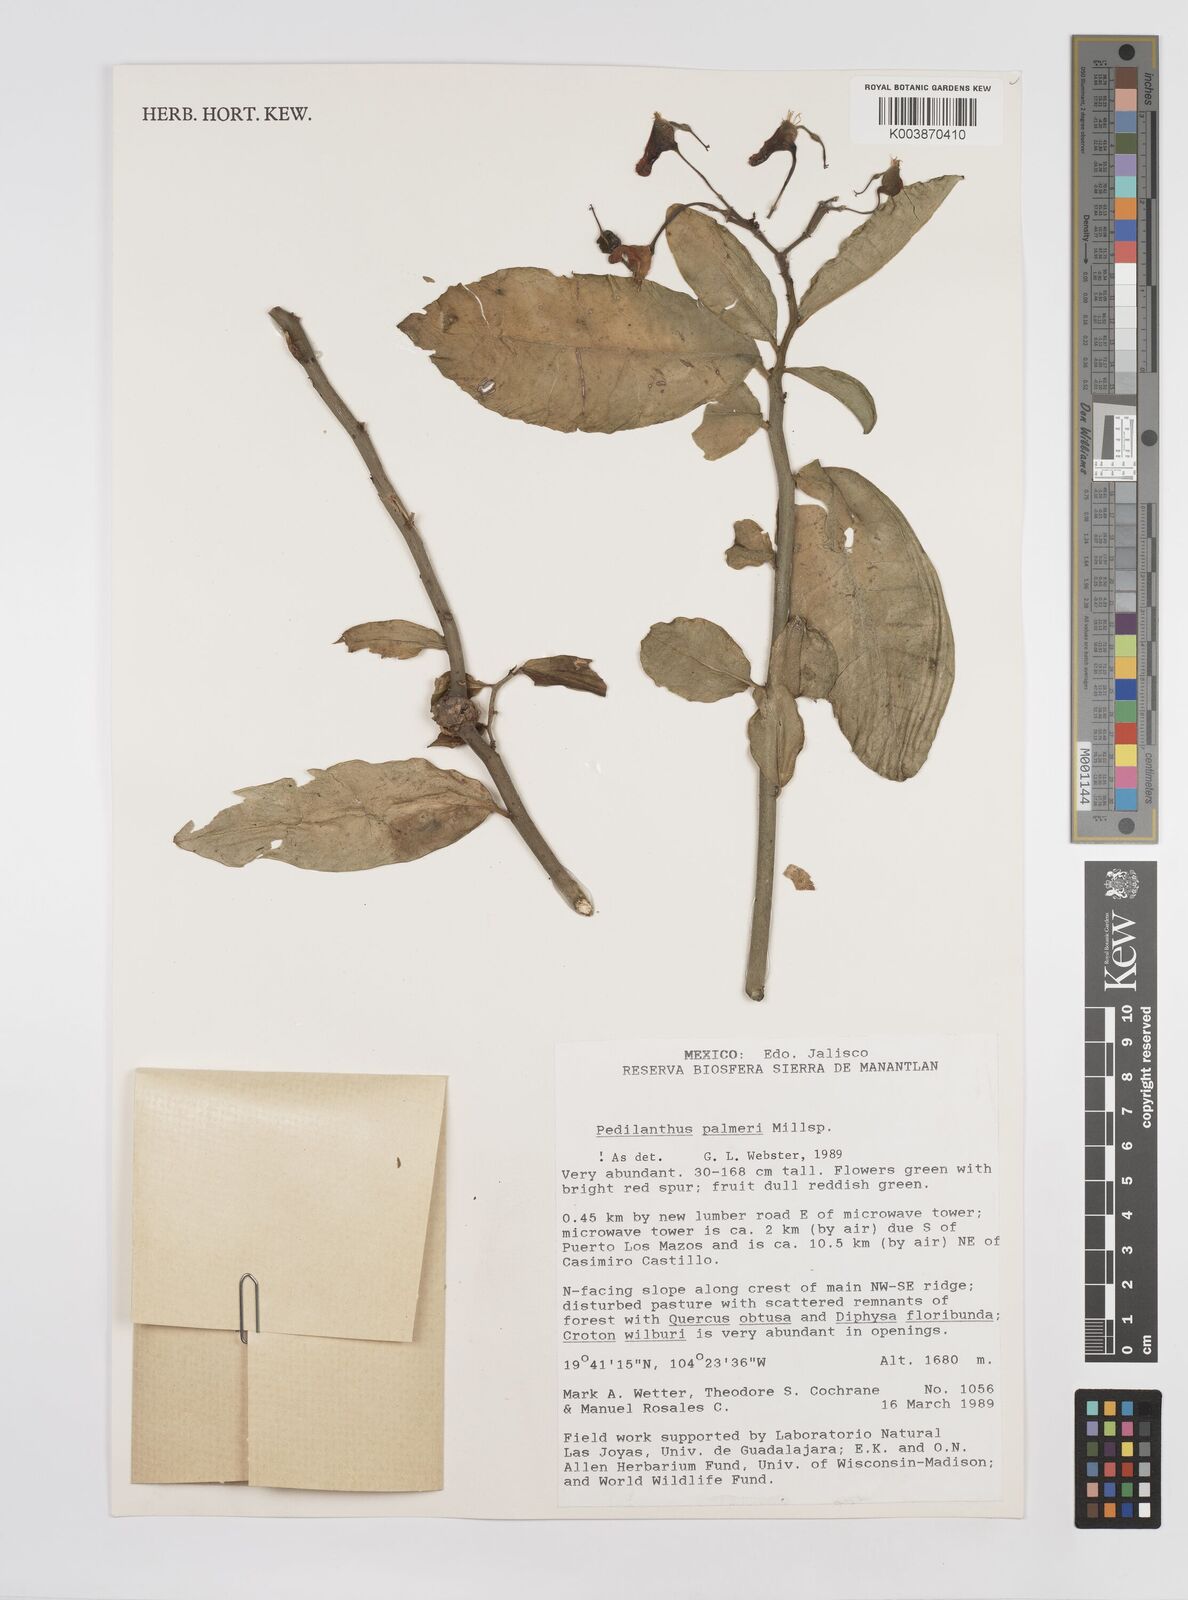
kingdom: Plantae
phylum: Tracheophyta
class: Magnoliopsida
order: Malpighiales
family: Euphorbiaceae
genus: Euphorbia
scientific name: Euphorbia peritropoides
